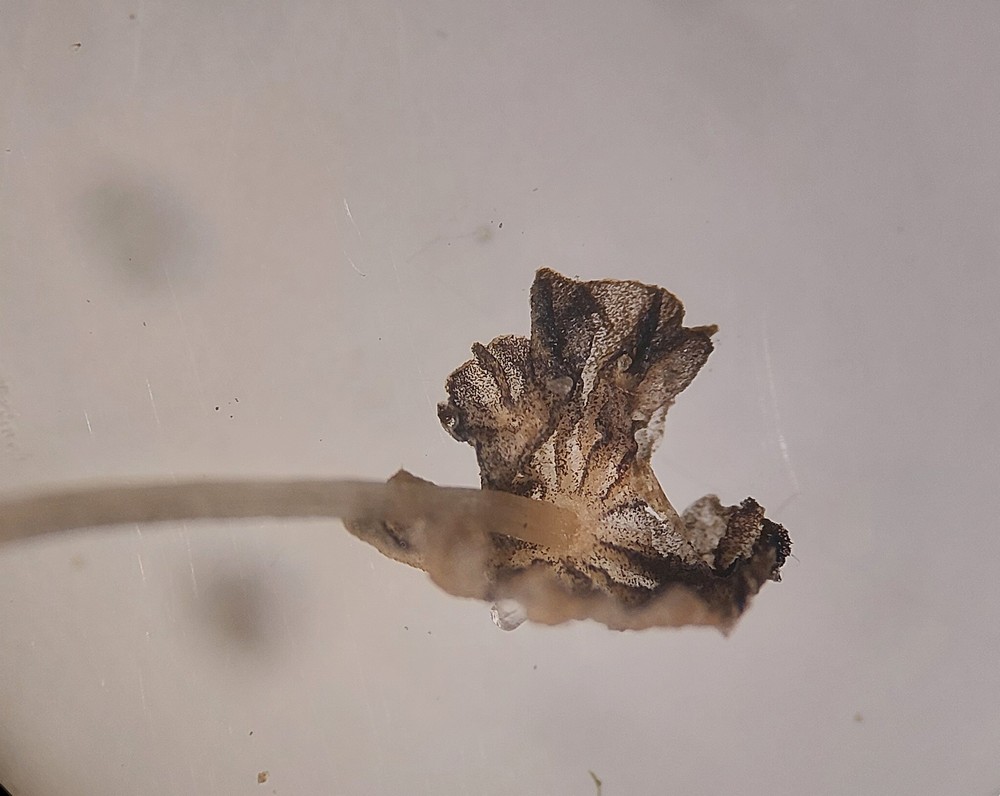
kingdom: Fungi
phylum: Basidiomycota
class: Agaricomycetes
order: Agaricales
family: Psathyrellaceae
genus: Parasola
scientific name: Parasola misera
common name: lillebitte hjulhat
